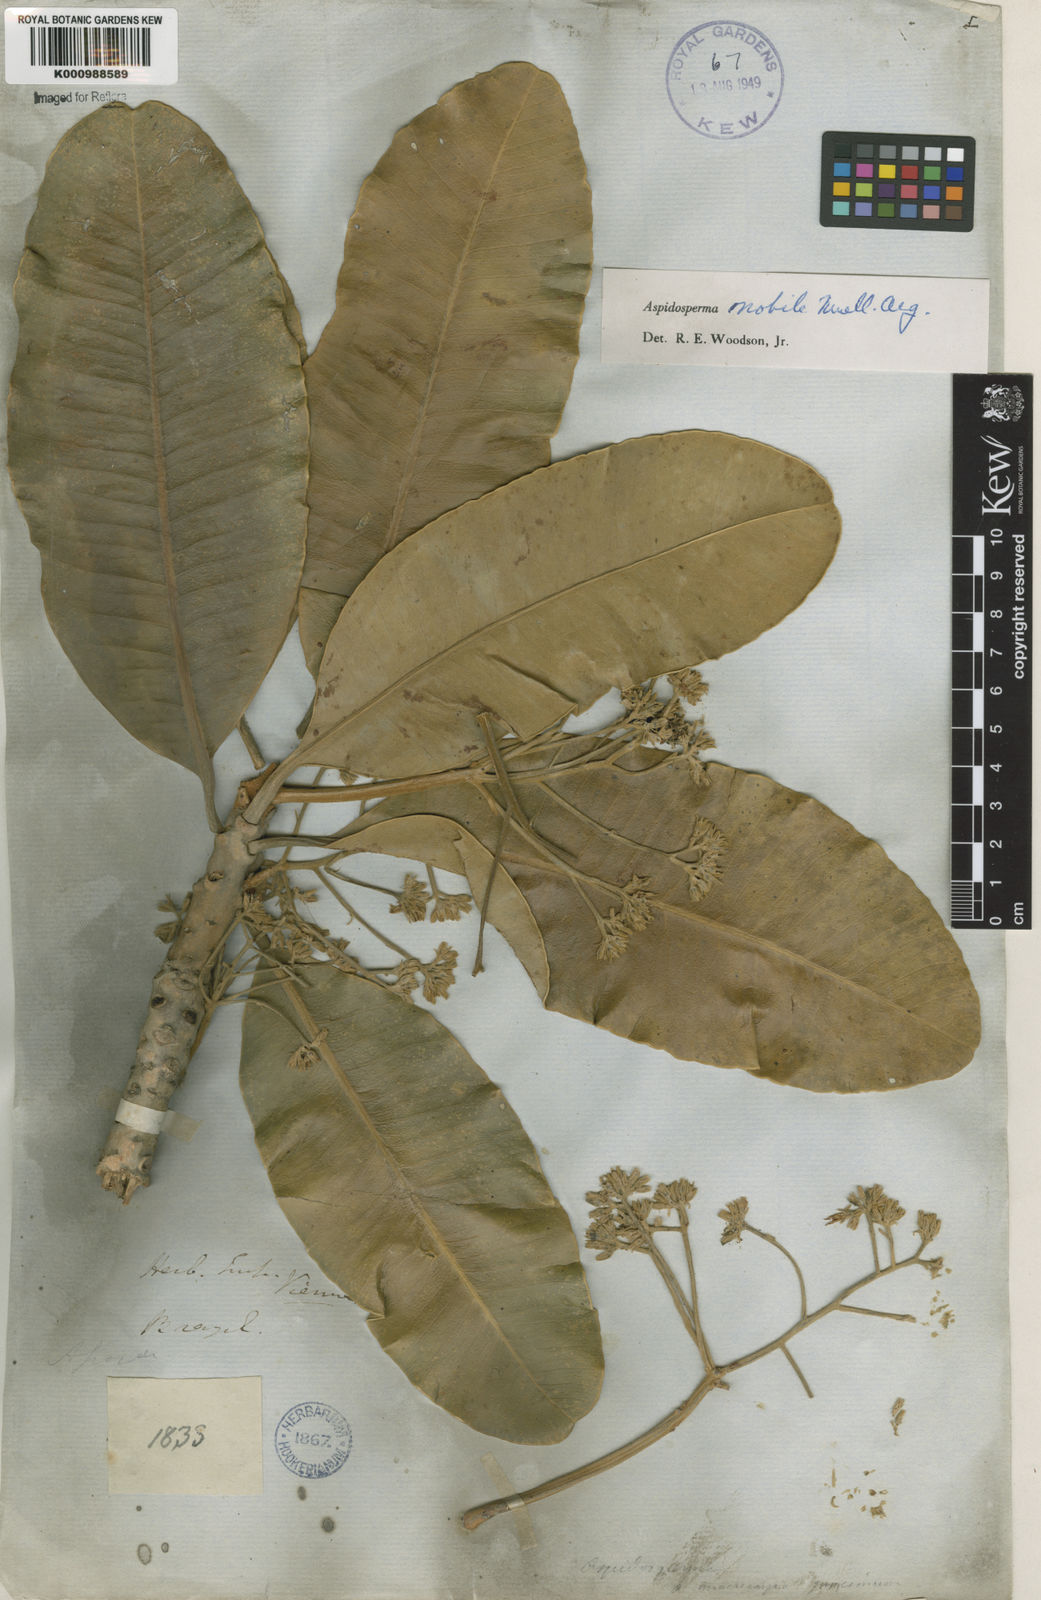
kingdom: Plantae
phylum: Tracheophyta
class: Magnoliopsida
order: Gentianales
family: Apocynaceae
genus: Aspidosperma
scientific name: Aspidosperma
